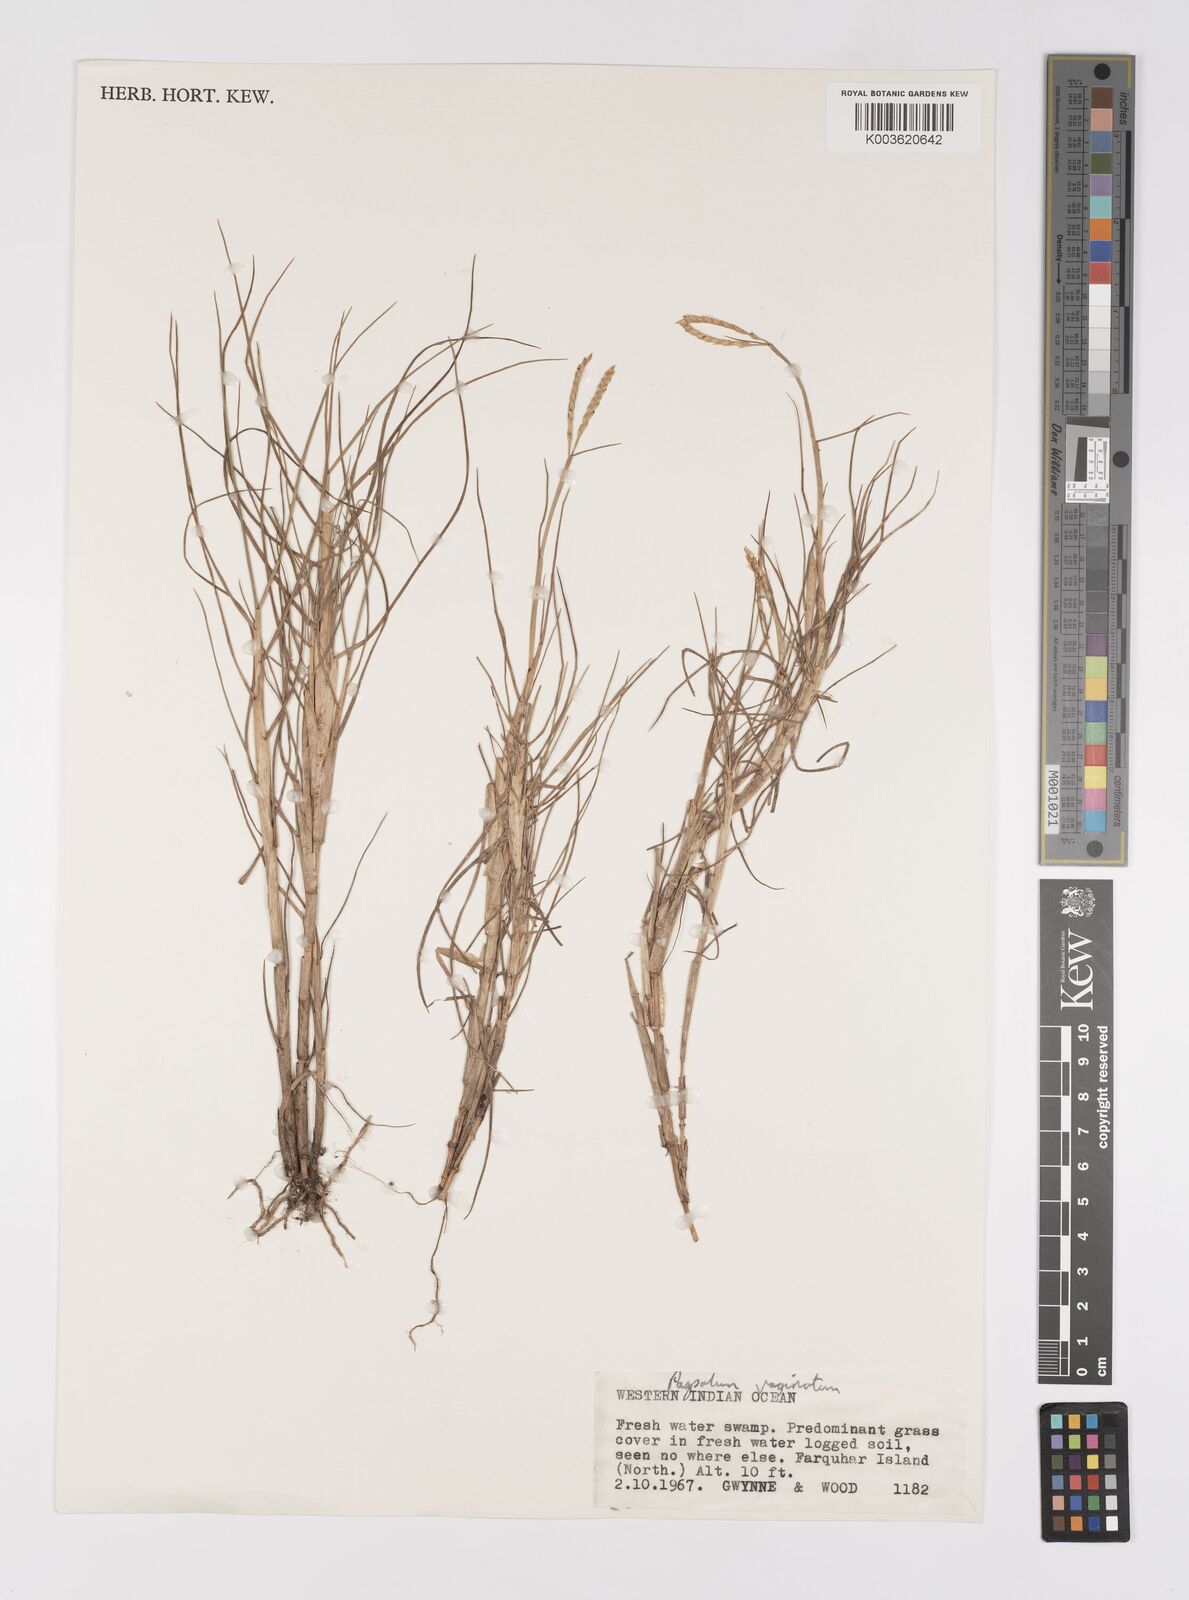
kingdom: Plantae
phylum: Tracheophyta
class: Liliopsida
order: Poales
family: Poaceae
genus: Paspalum
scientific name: Paspalum vaginatum
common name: Seashore paspalum
